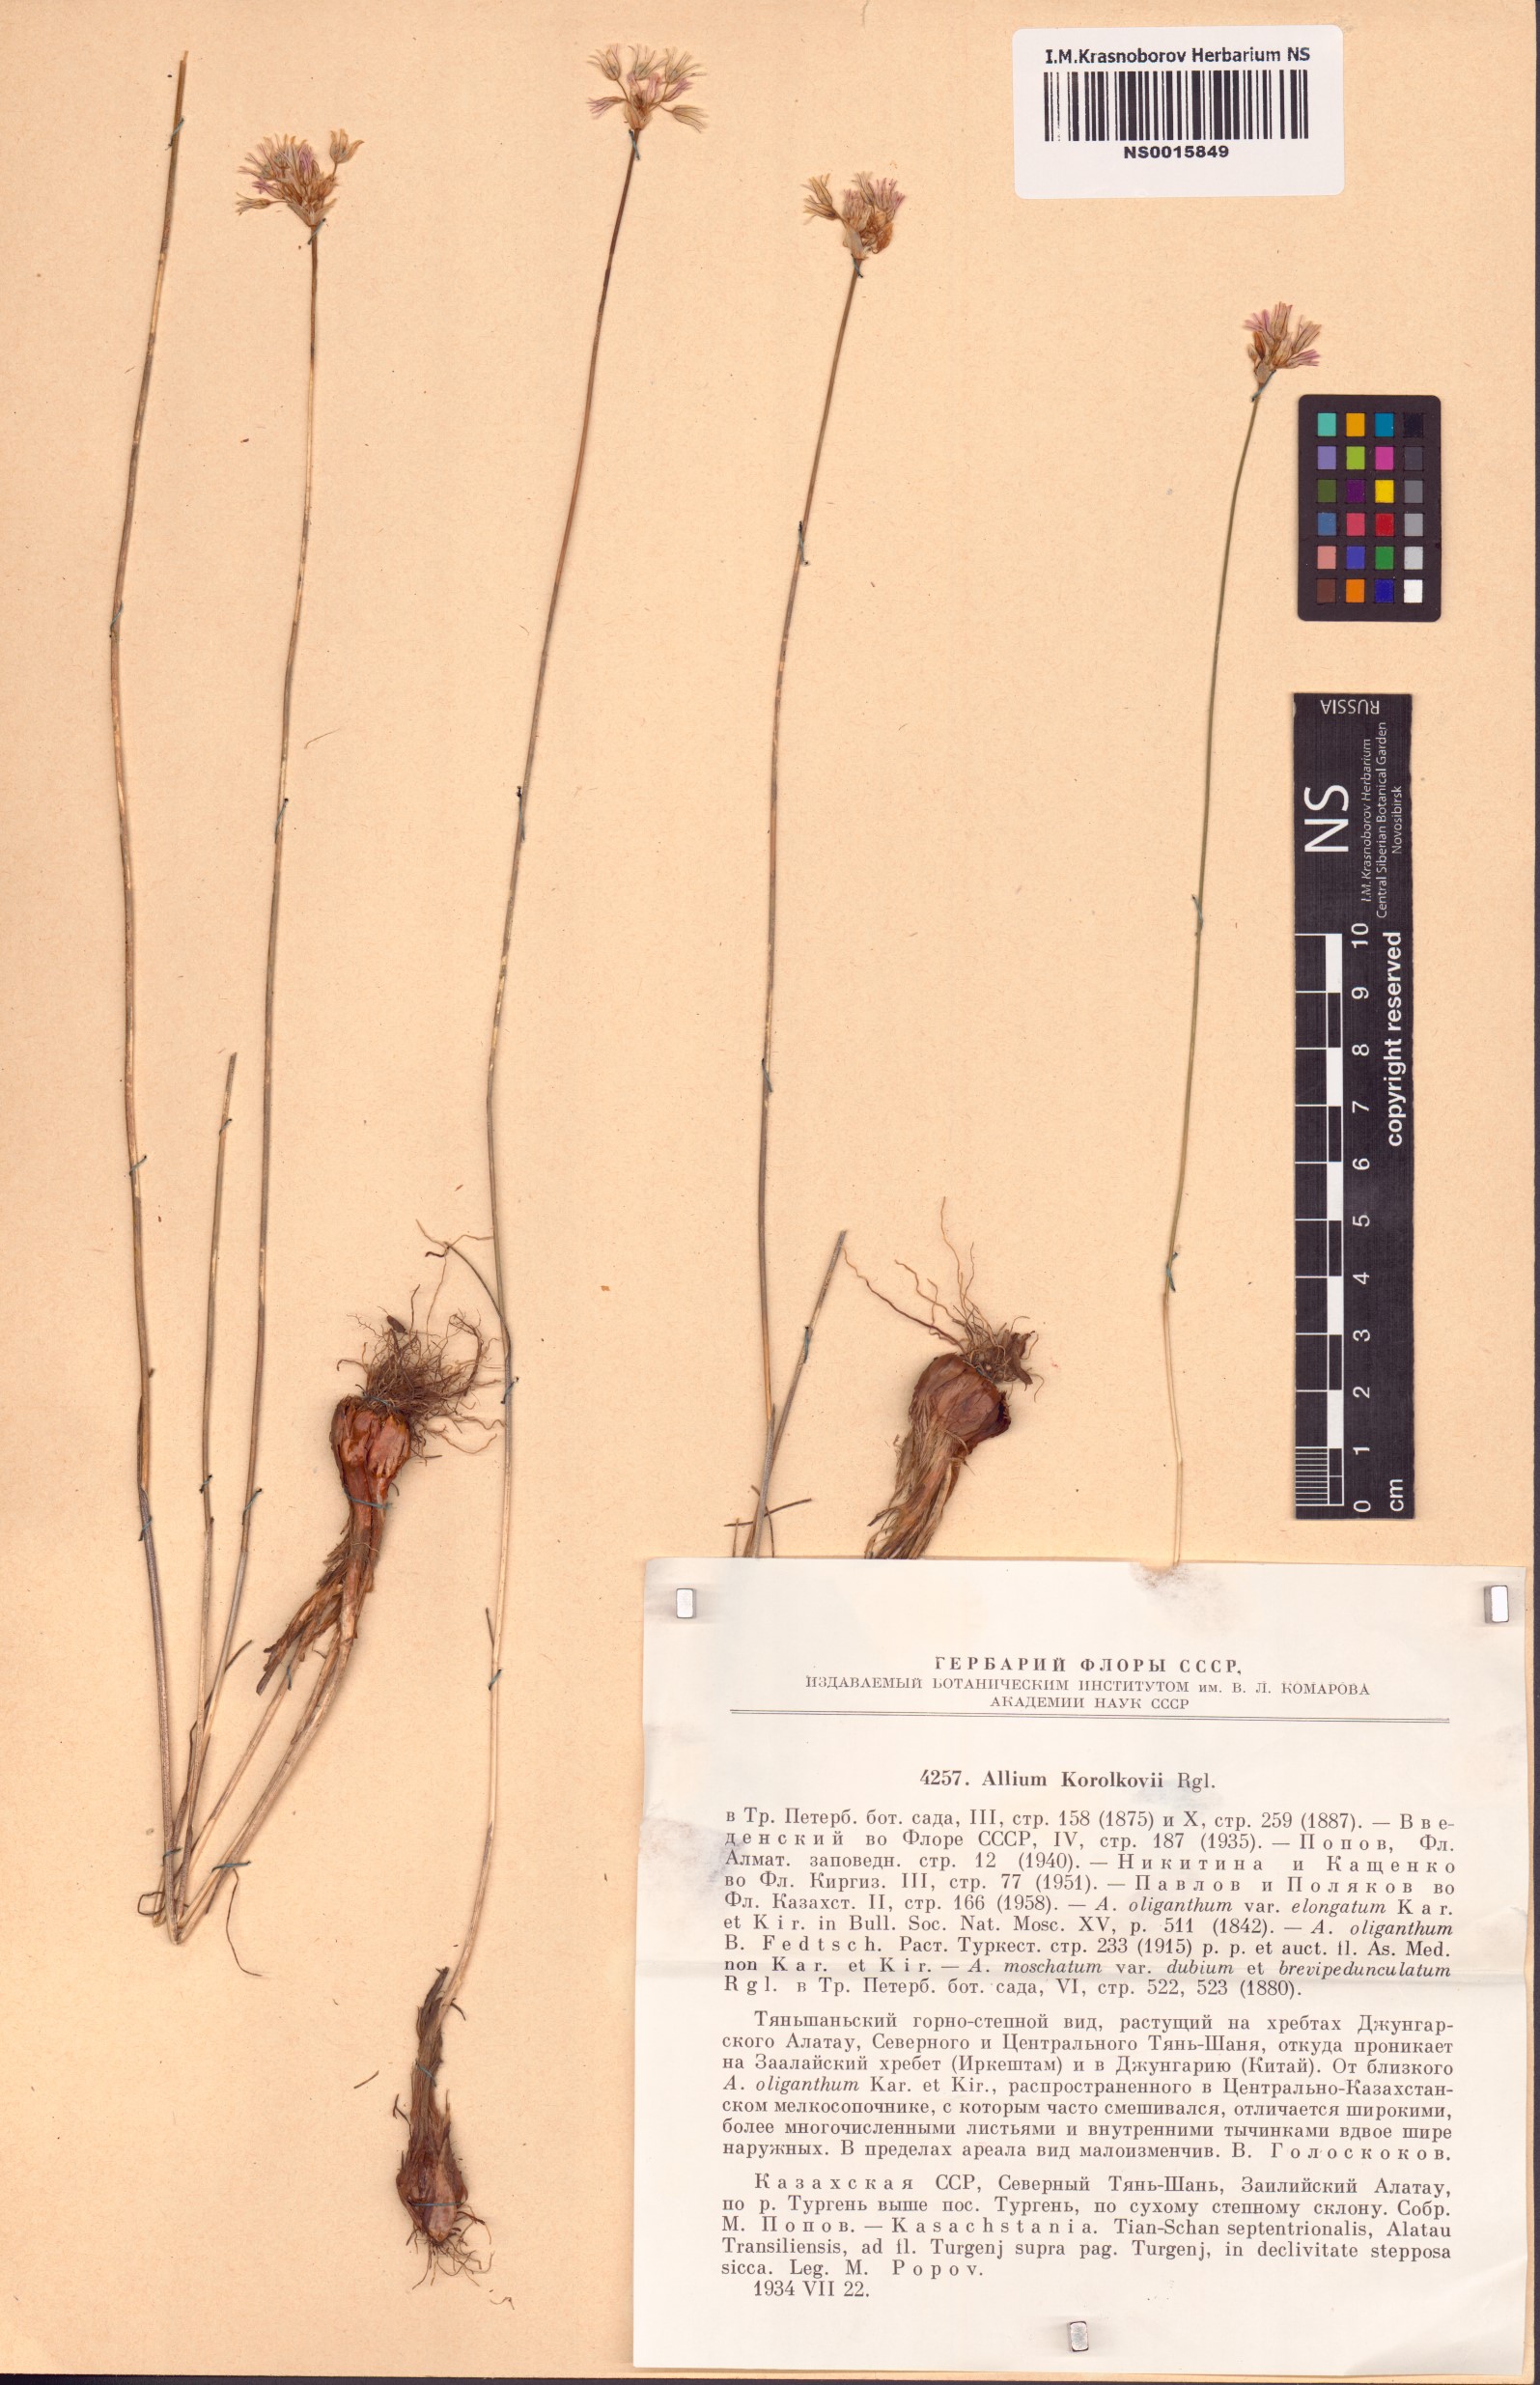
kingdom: Plantae
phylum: Tracheophyta
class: Liliopsida
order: Asparagales
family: Amaryllidaceae
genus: Allium
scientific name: Allium korolkowii
